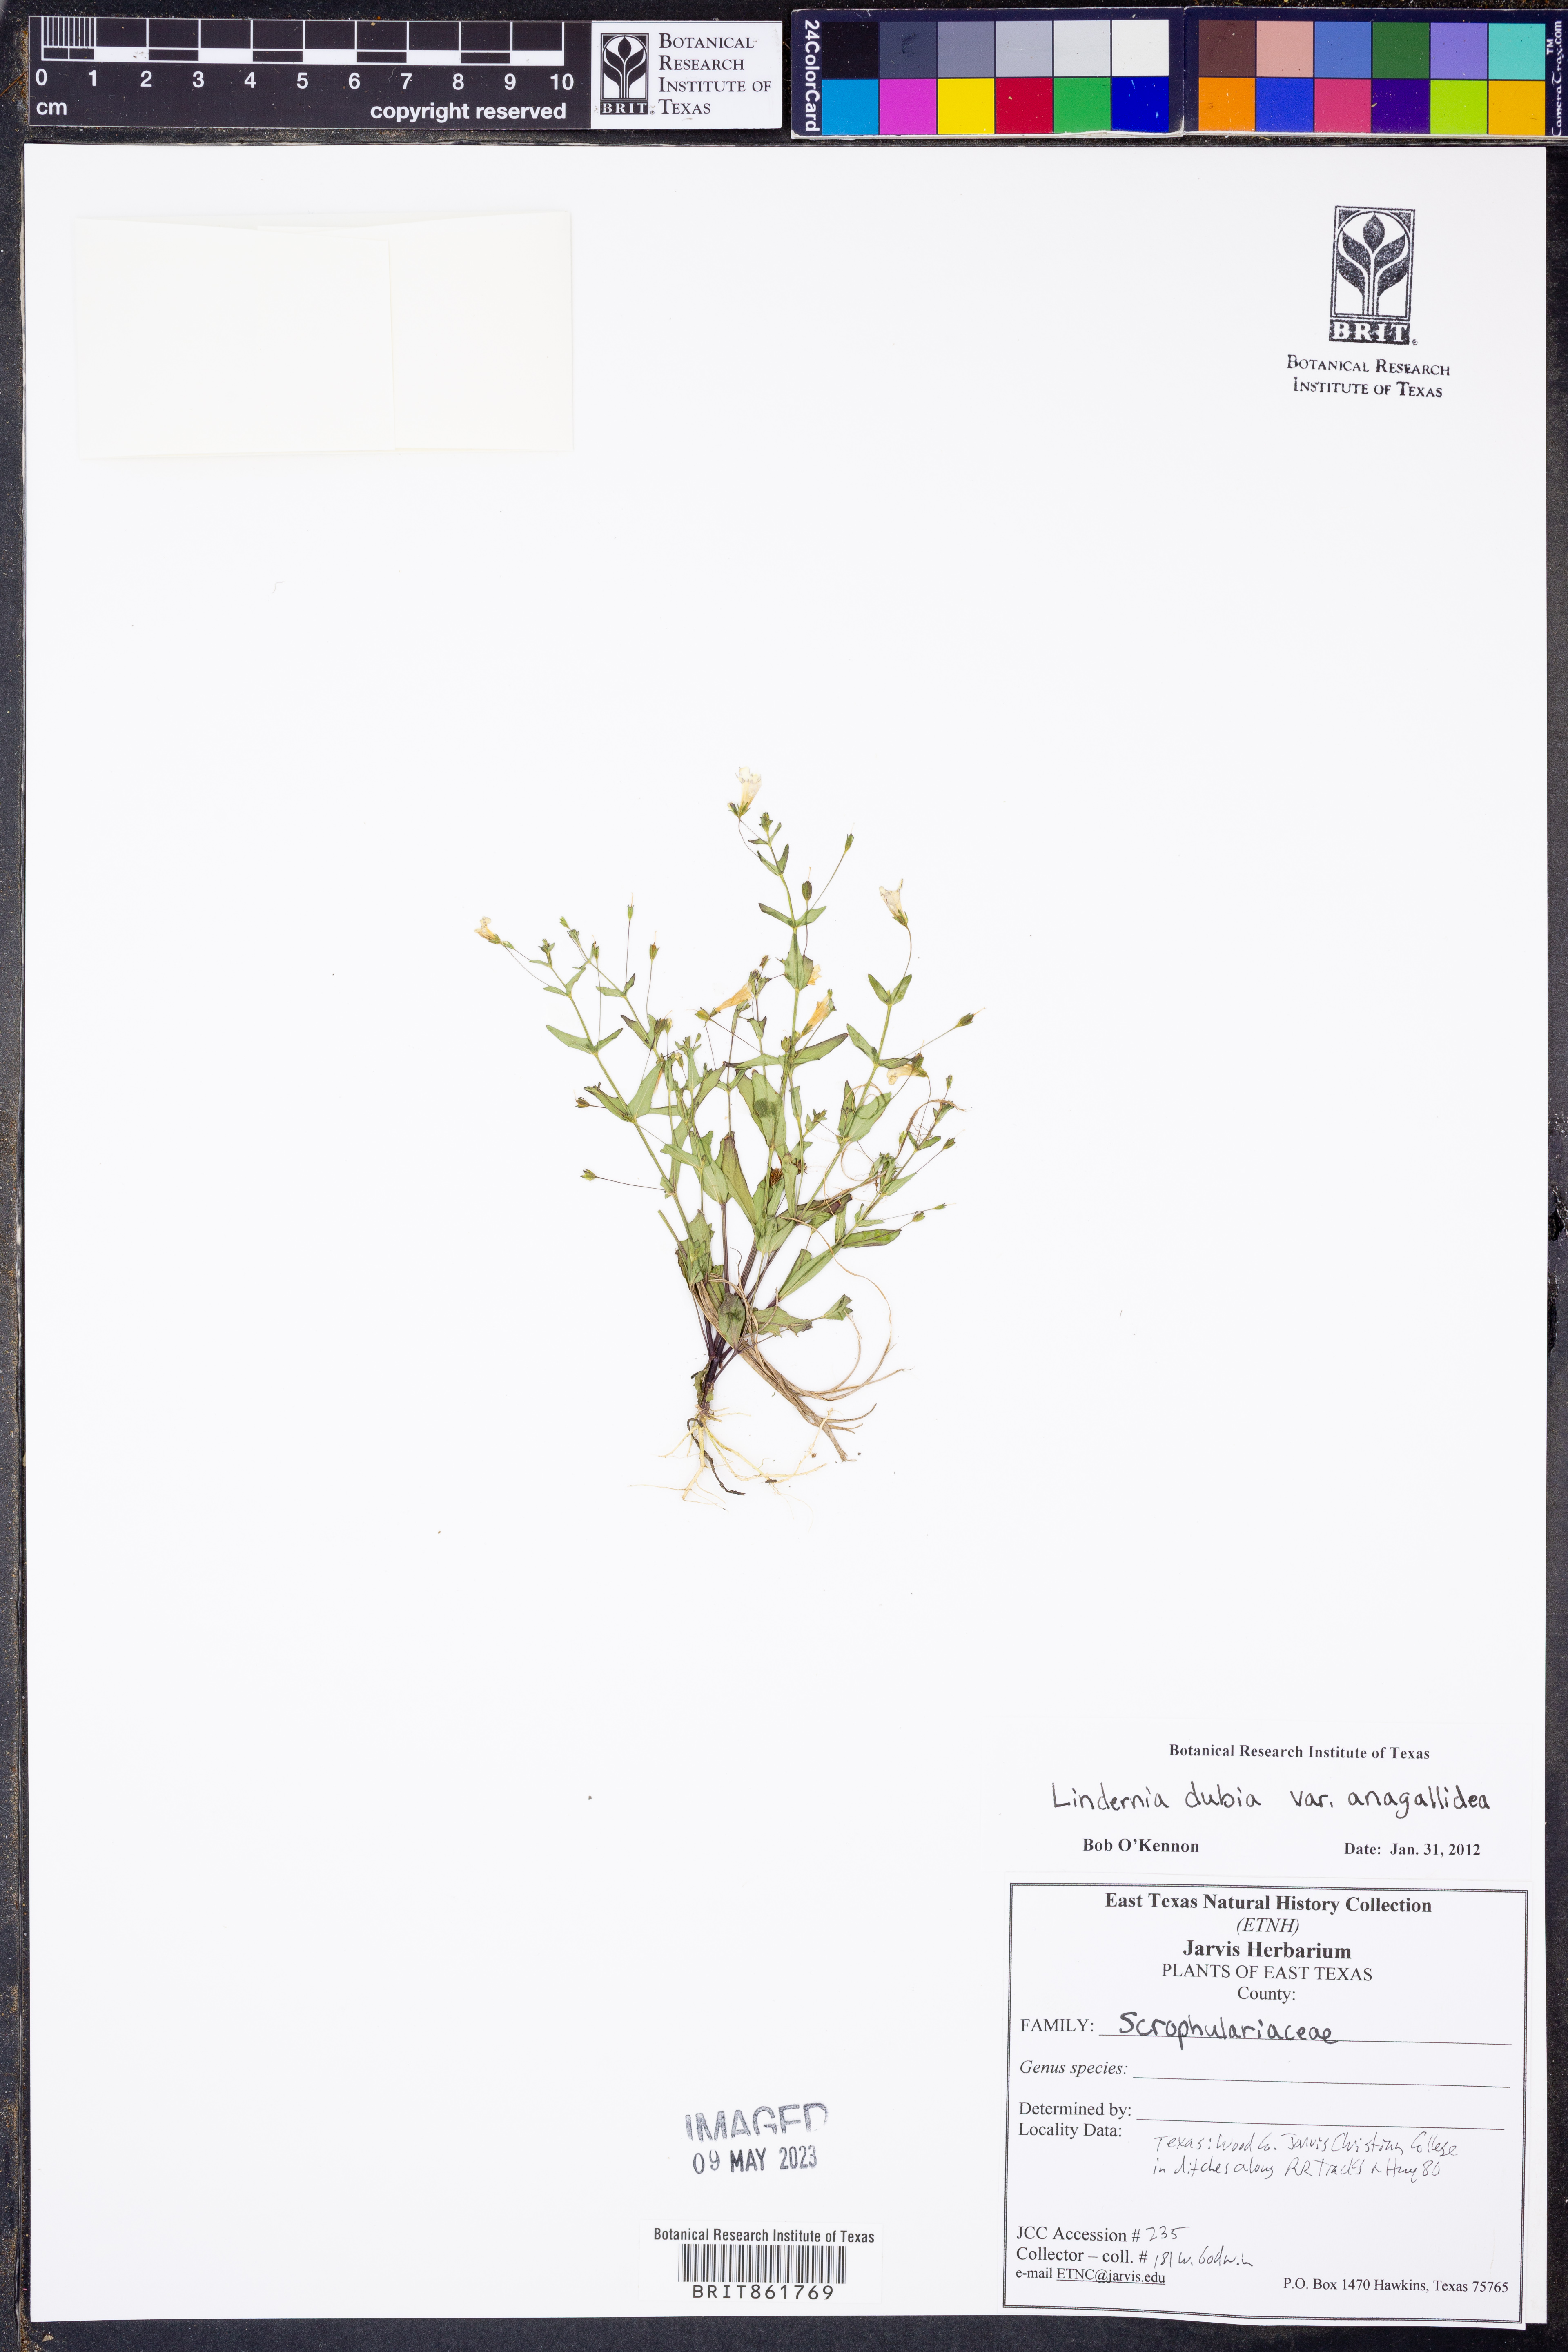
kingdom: Plantae
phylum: Tracheophyta
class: Magnoliopsida
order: Lamiales
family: Linderniaceae
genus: Lindernia
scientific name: Lindernia dubia
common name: Annual false pimpernel
